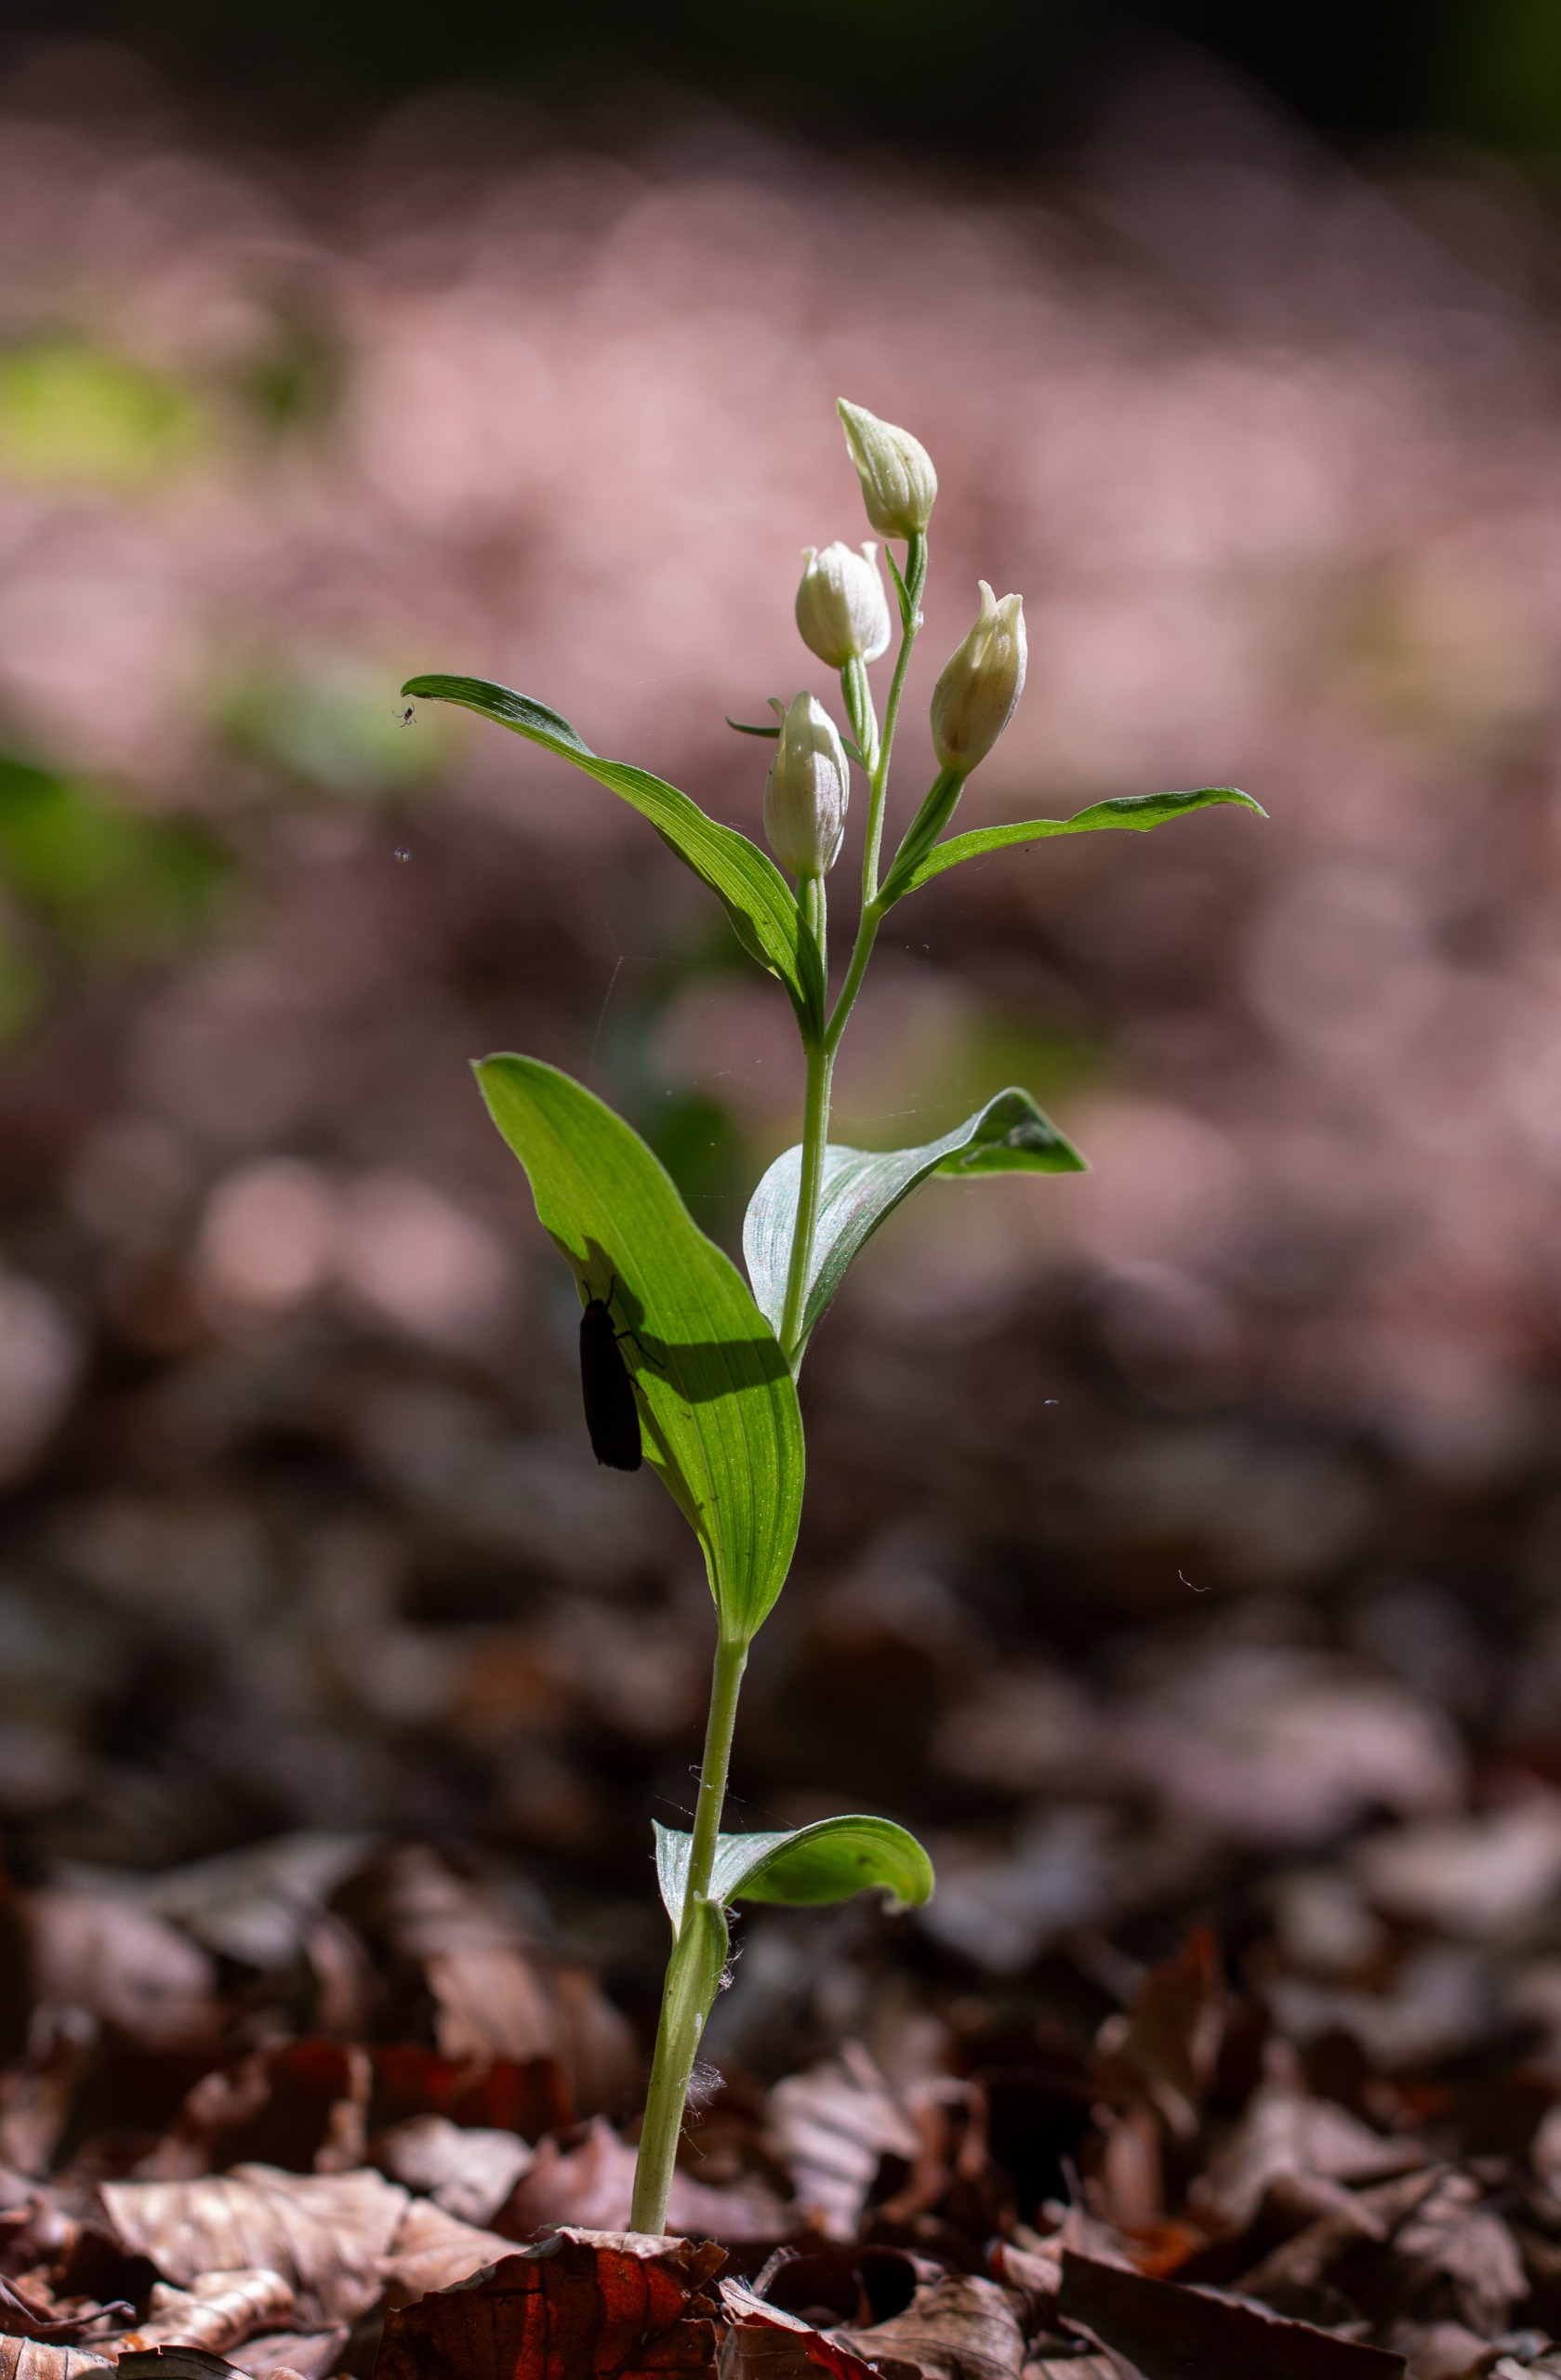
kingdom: Plantae
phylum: Tracheophyta
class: Liliopsida
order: Asparagales
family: Orchidaceae
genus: Cephalanthera
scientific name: Cephalanthera damasonium
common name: Hvidgul skovlilje
